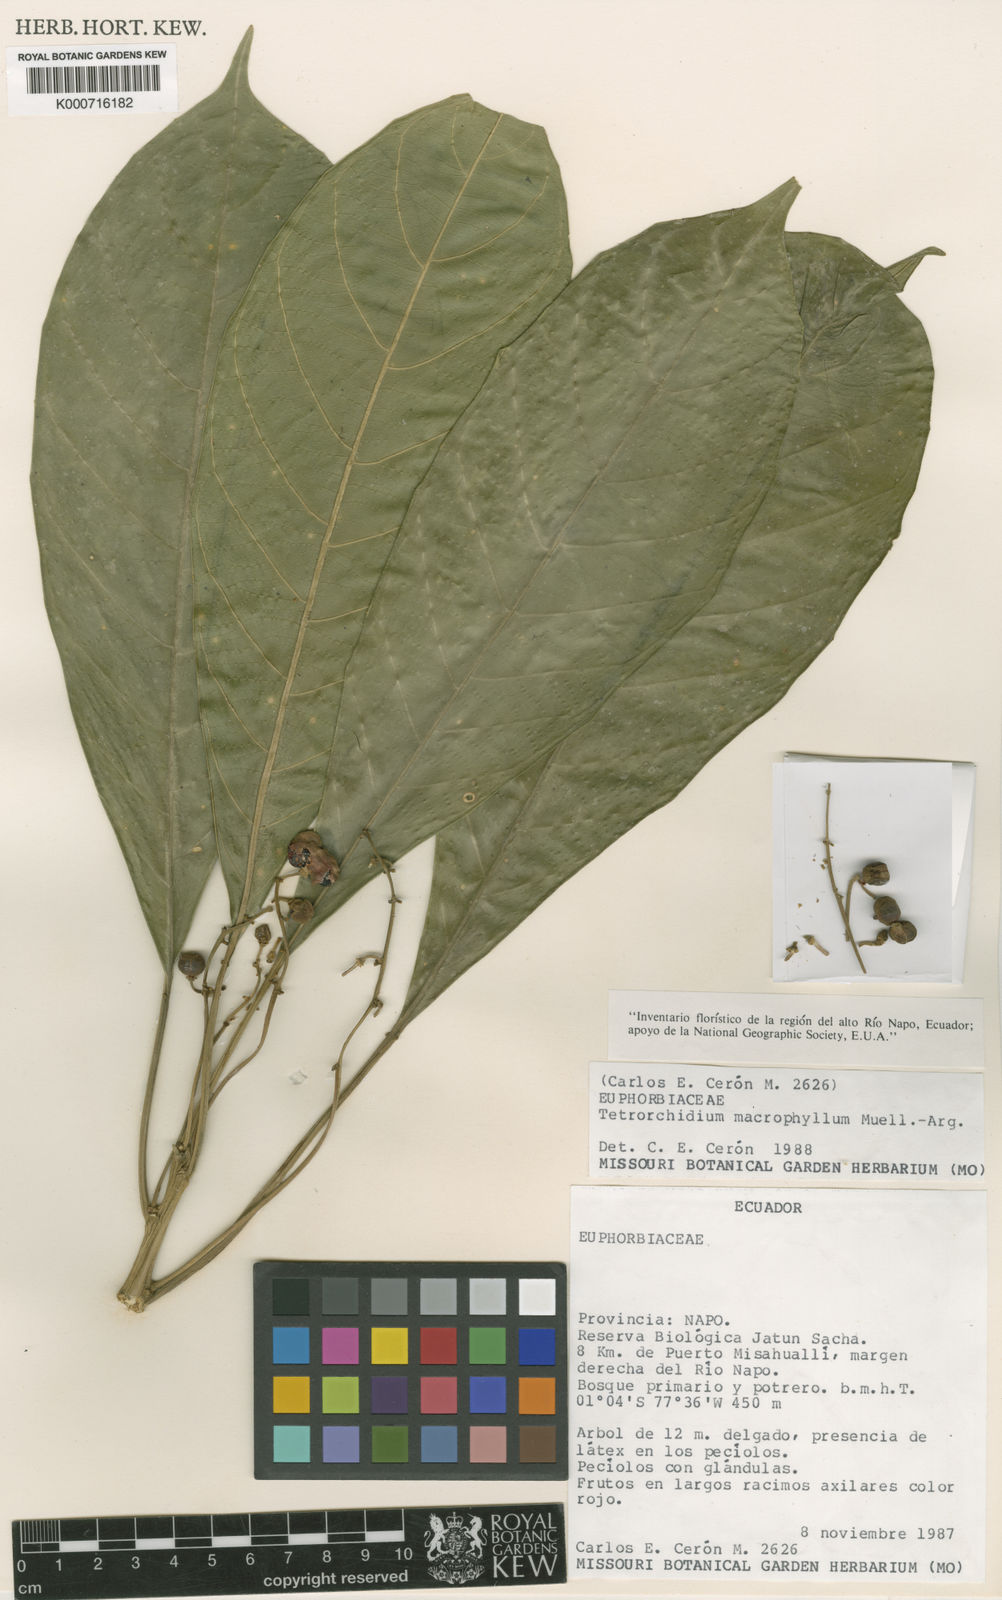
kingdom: Plantae
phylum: Tracheophyta
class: Magnoliopsida
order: Malpighiales
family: Euphorbiaceae
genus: Tetrorchidium
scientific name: Tetrorchidium
